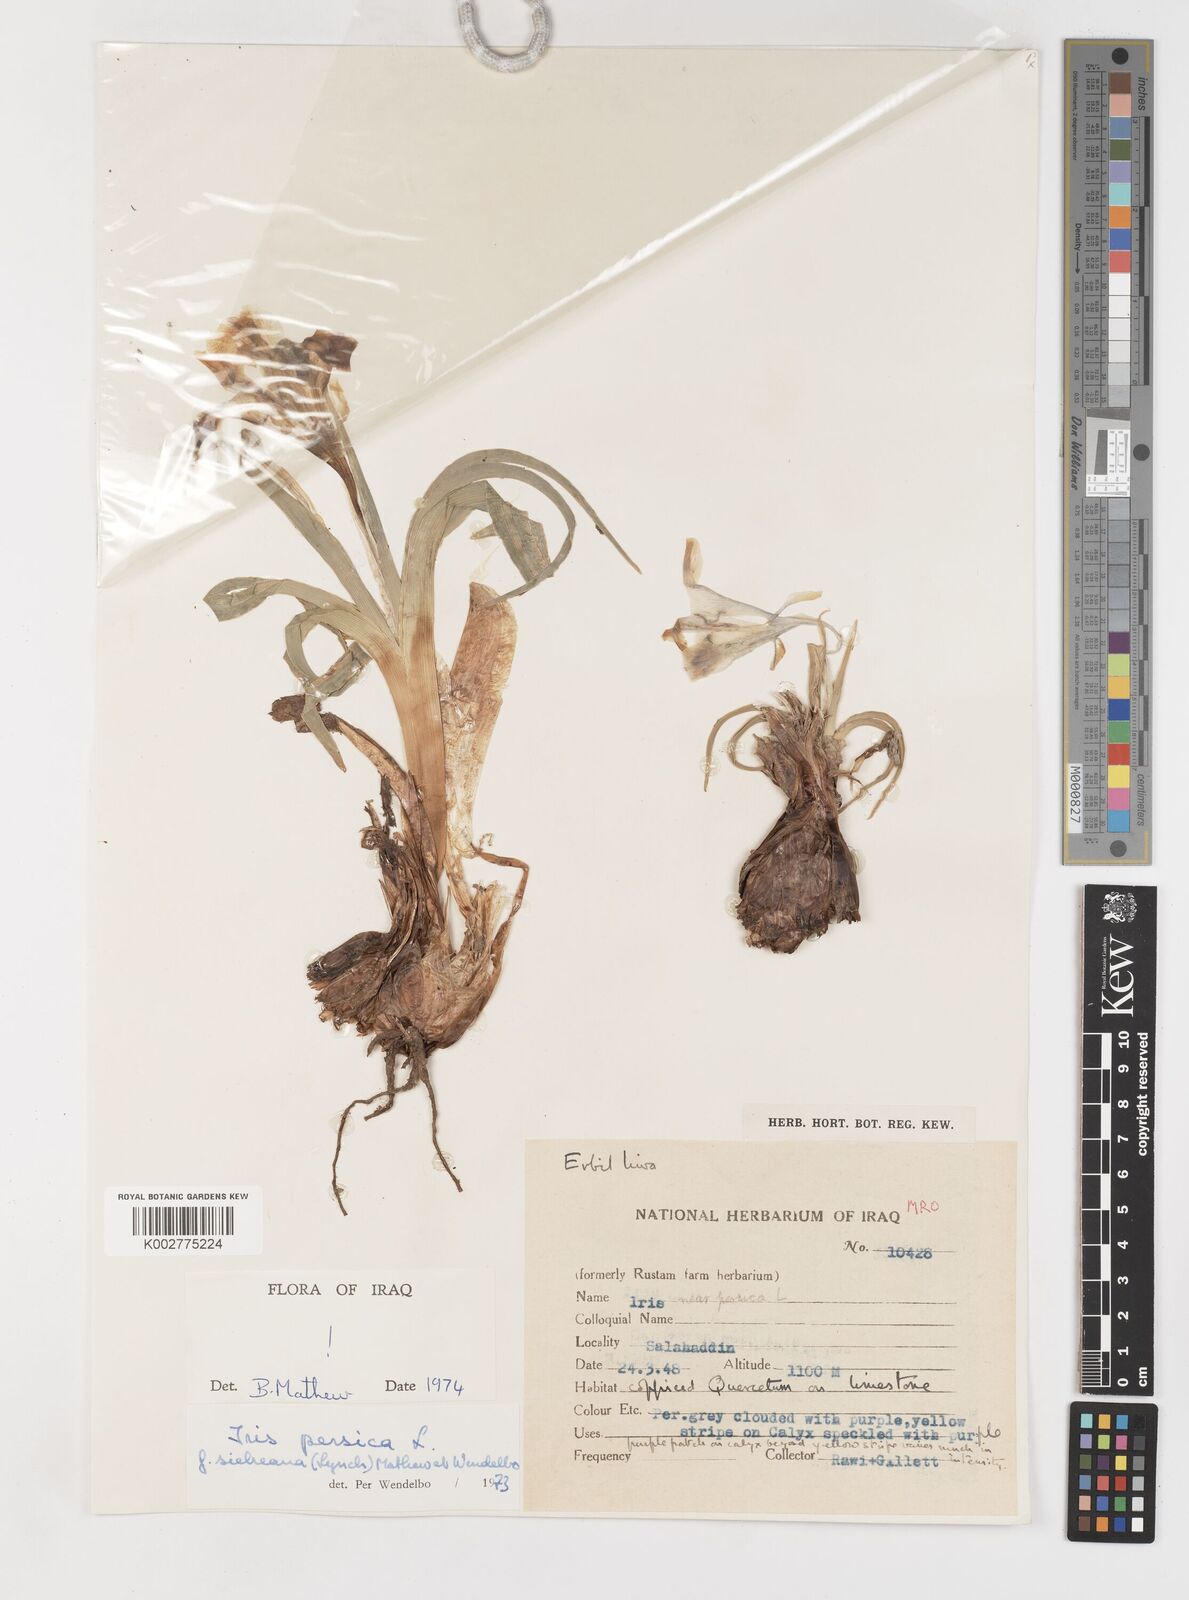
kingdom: Plantae
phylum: Tracheophyta
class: Liliopsida
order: Asparagales
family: Iridaceae
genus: Iris
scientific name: Iris persica
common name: Persian iris
